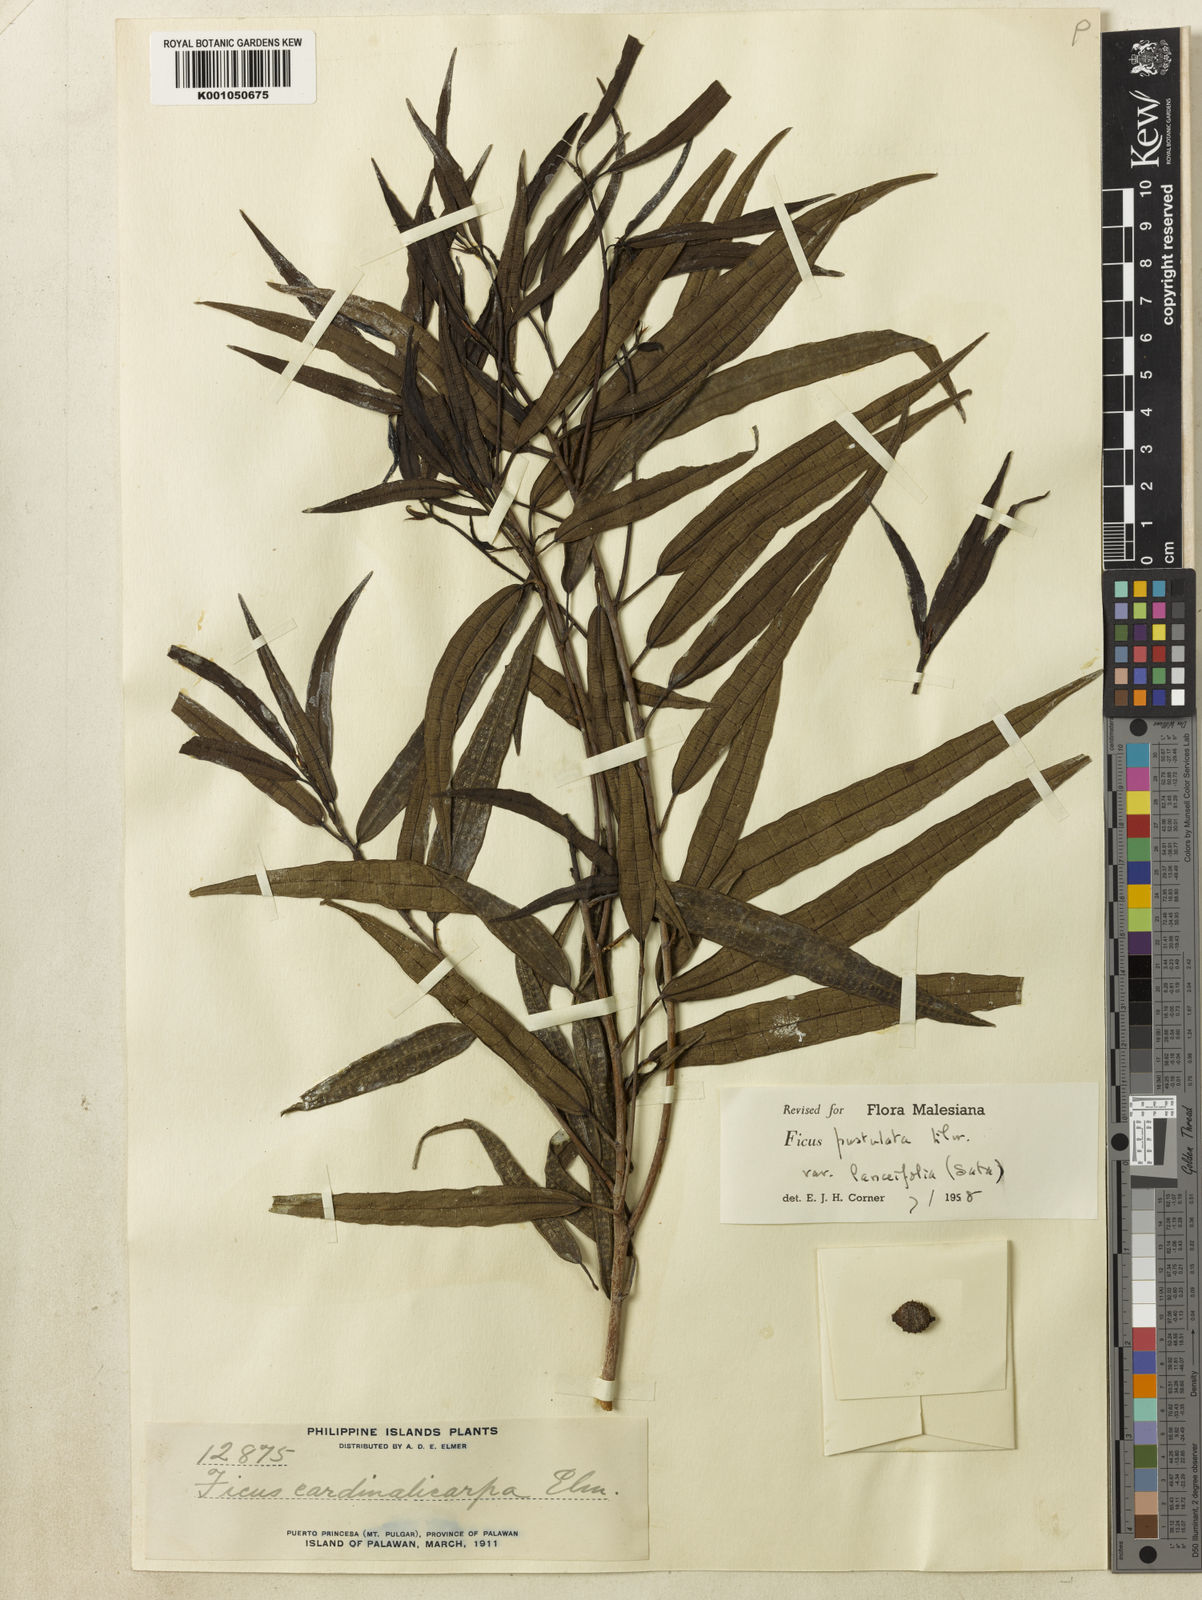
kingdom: Plantae
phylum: Tracheophyta
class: Magnoliopsida
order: Rosales
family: Moraceae
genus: Ficus
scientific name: Ficus pustulata
